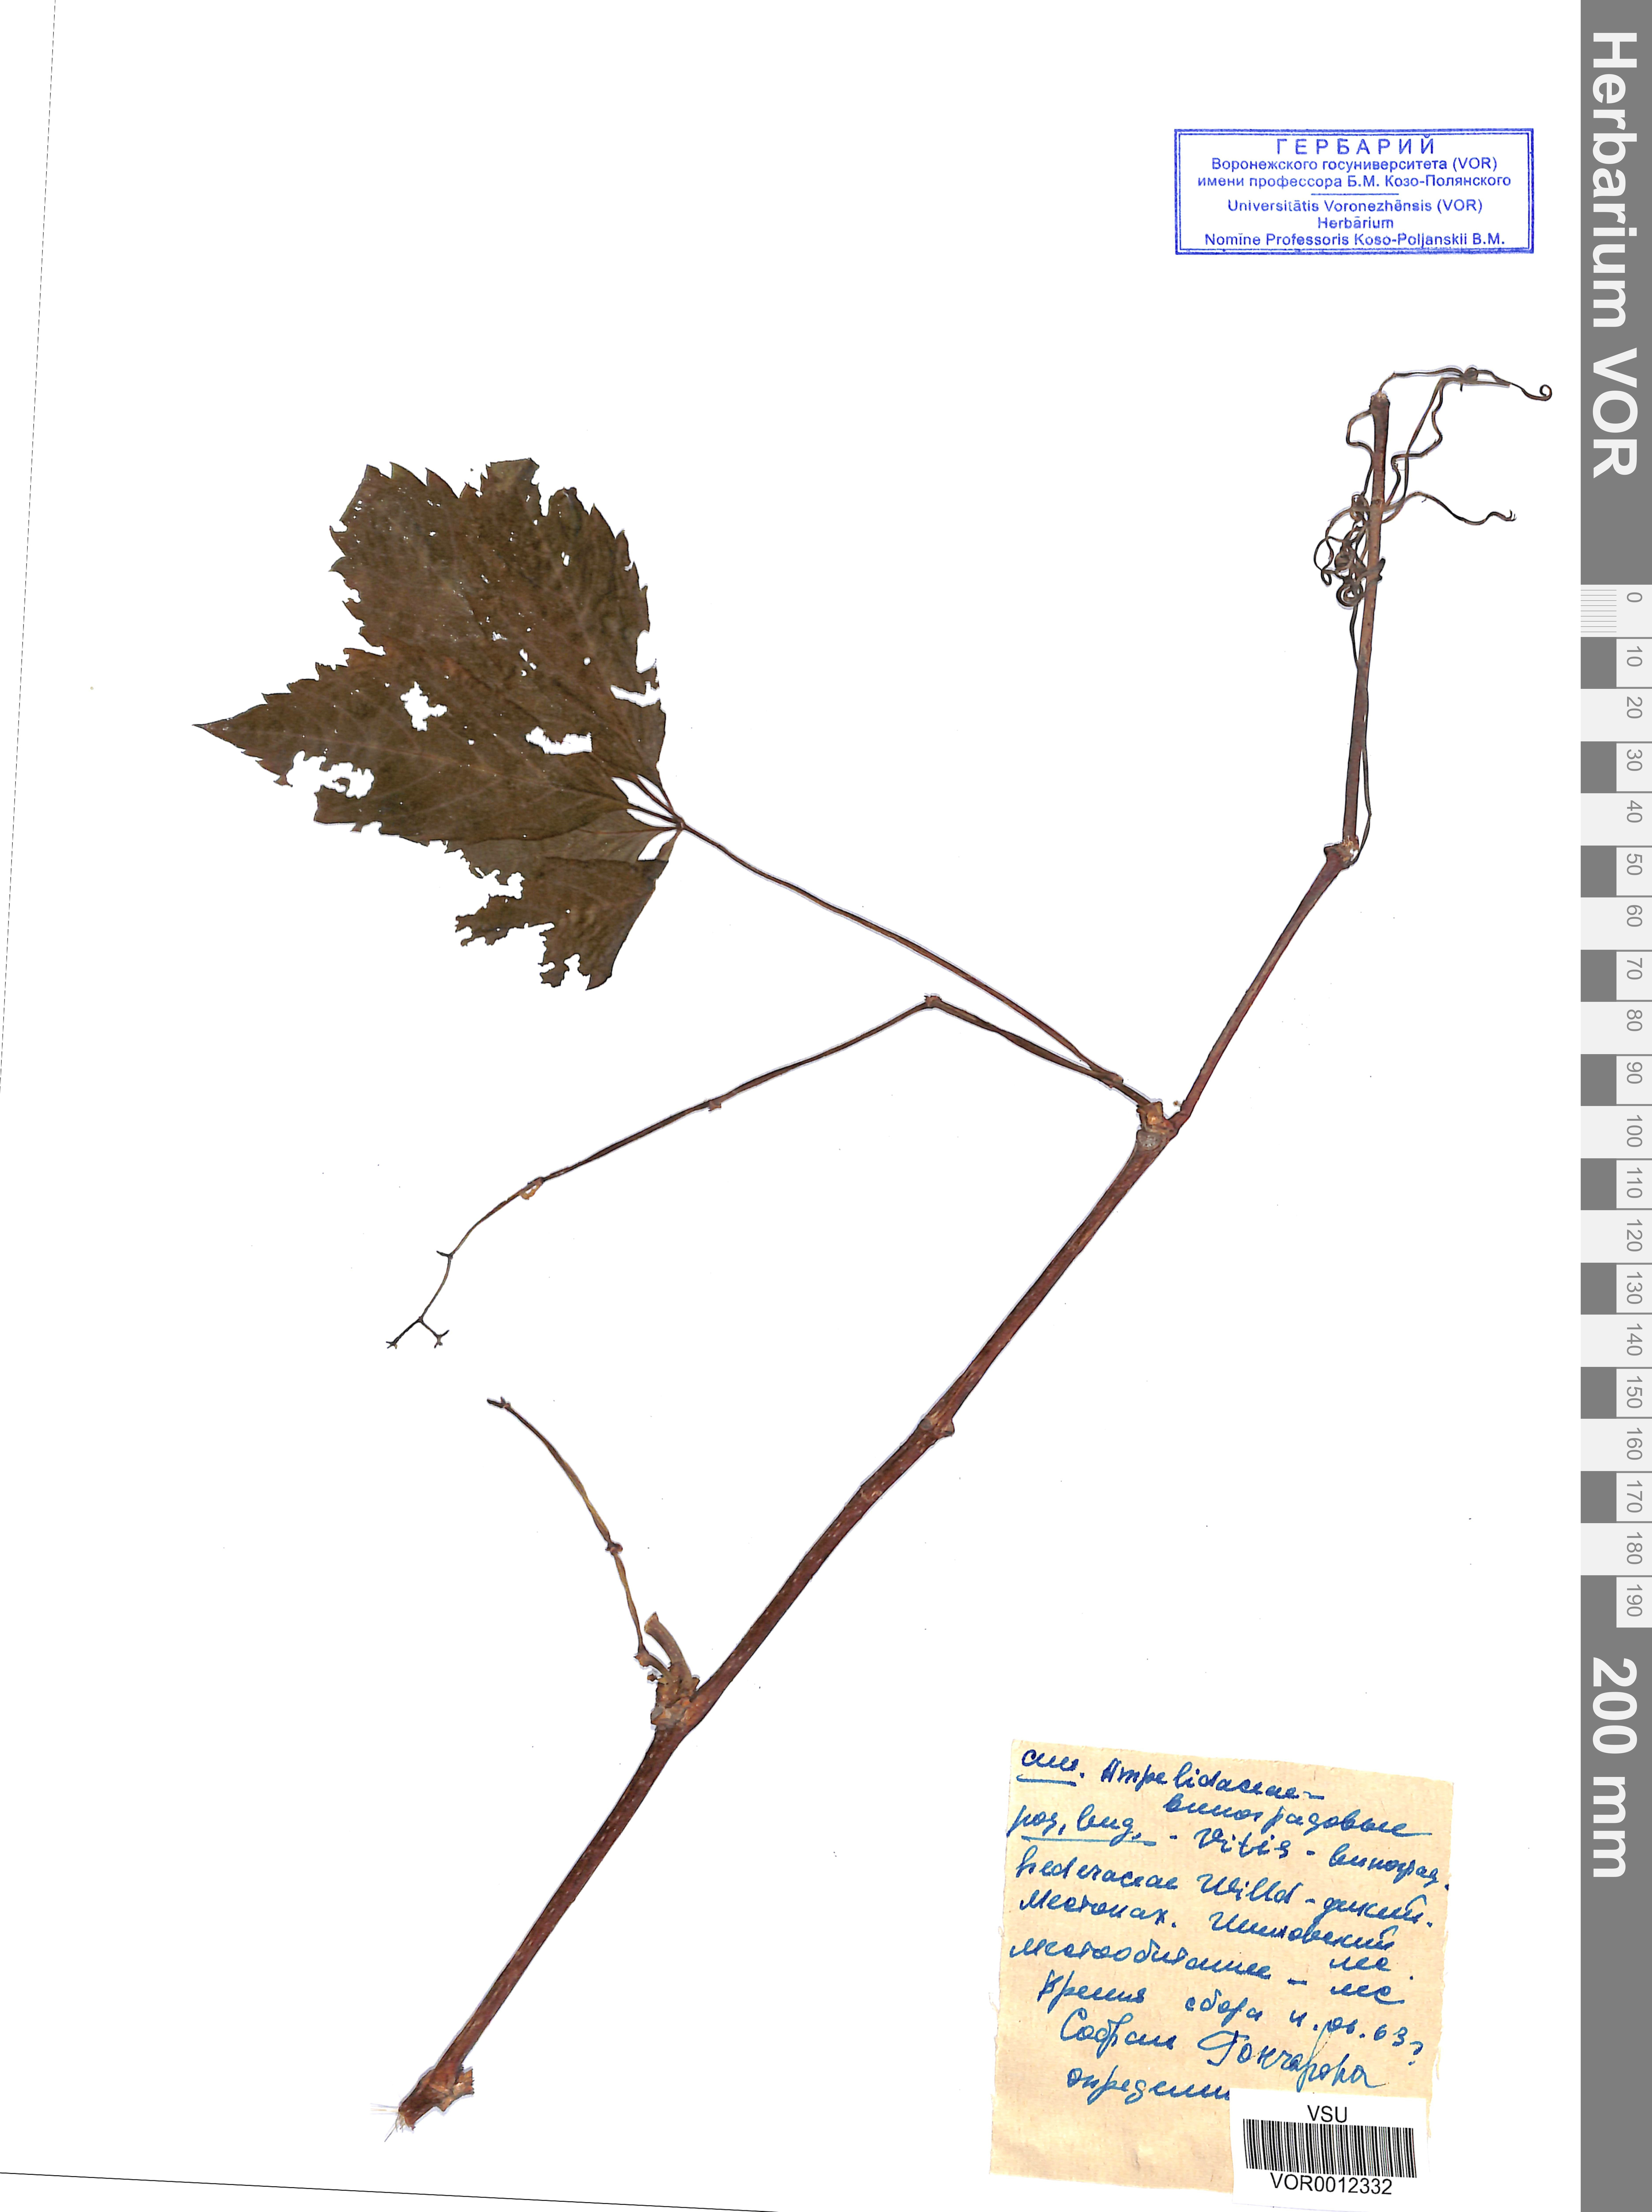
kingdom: Plantae
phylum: Tracheophyta
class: Magnoliopsida
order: Vitales
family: Vitaceae
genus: Parthenocissus
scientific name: Parthenocissus quinquefolia
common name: Virginia-creeper
